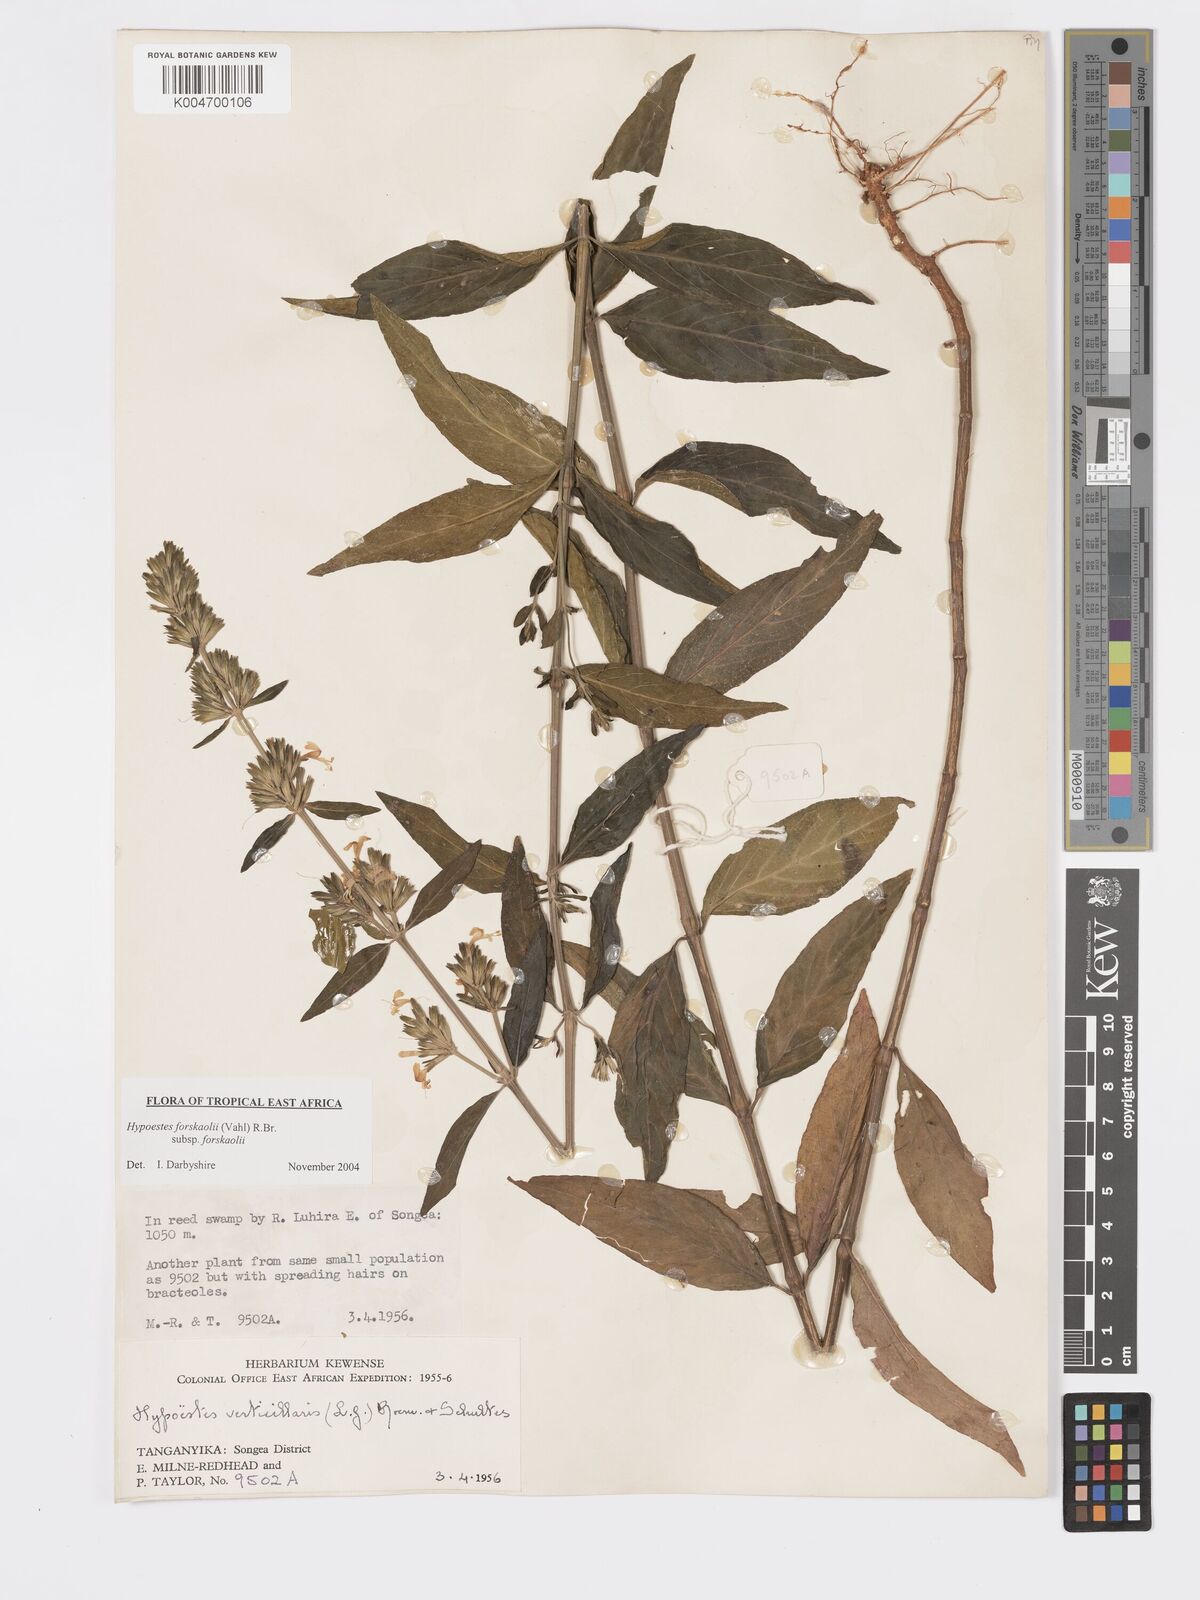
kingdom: Plantae
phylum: Tracheophyta
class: Magnoliopsida
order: Lamiales
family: Acanthaceae
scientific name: Acanthaceae
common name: Acanthaceae
